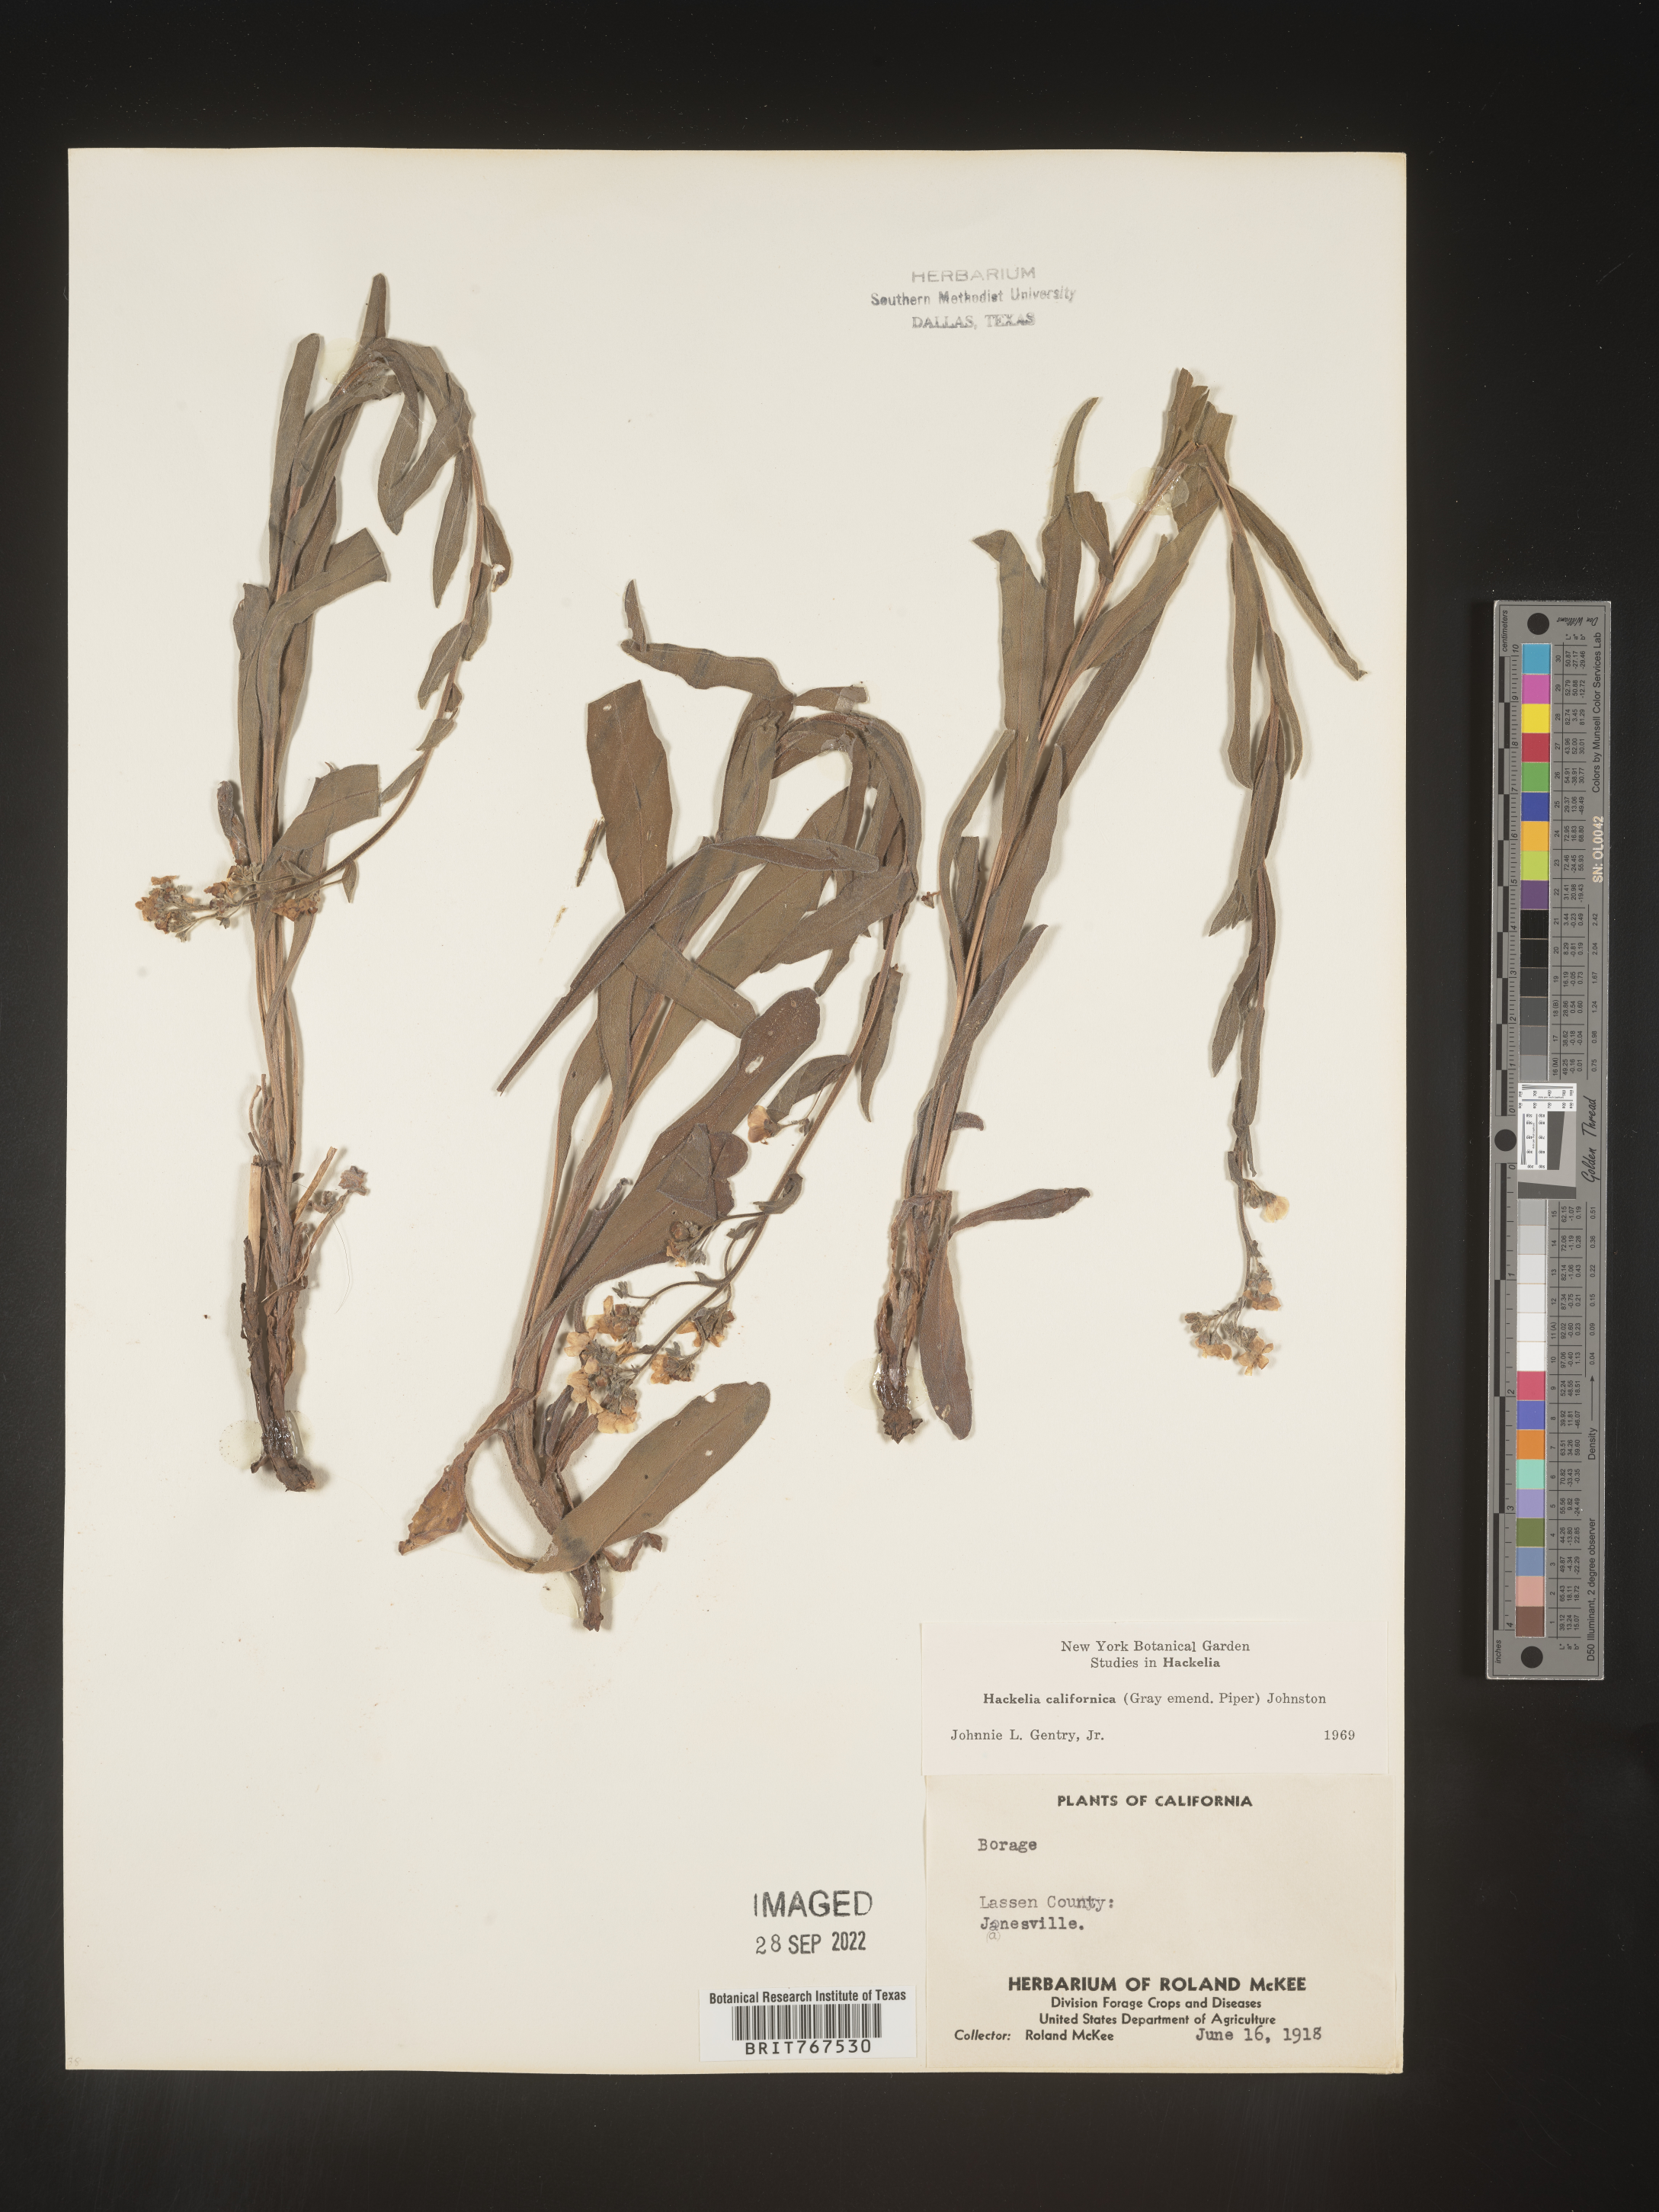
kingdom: Plantae
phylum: Tracheophyta
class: Magnoliopsida
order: Boraginales
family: Boraginaceae
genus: Hackelia
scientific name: Hackelia
